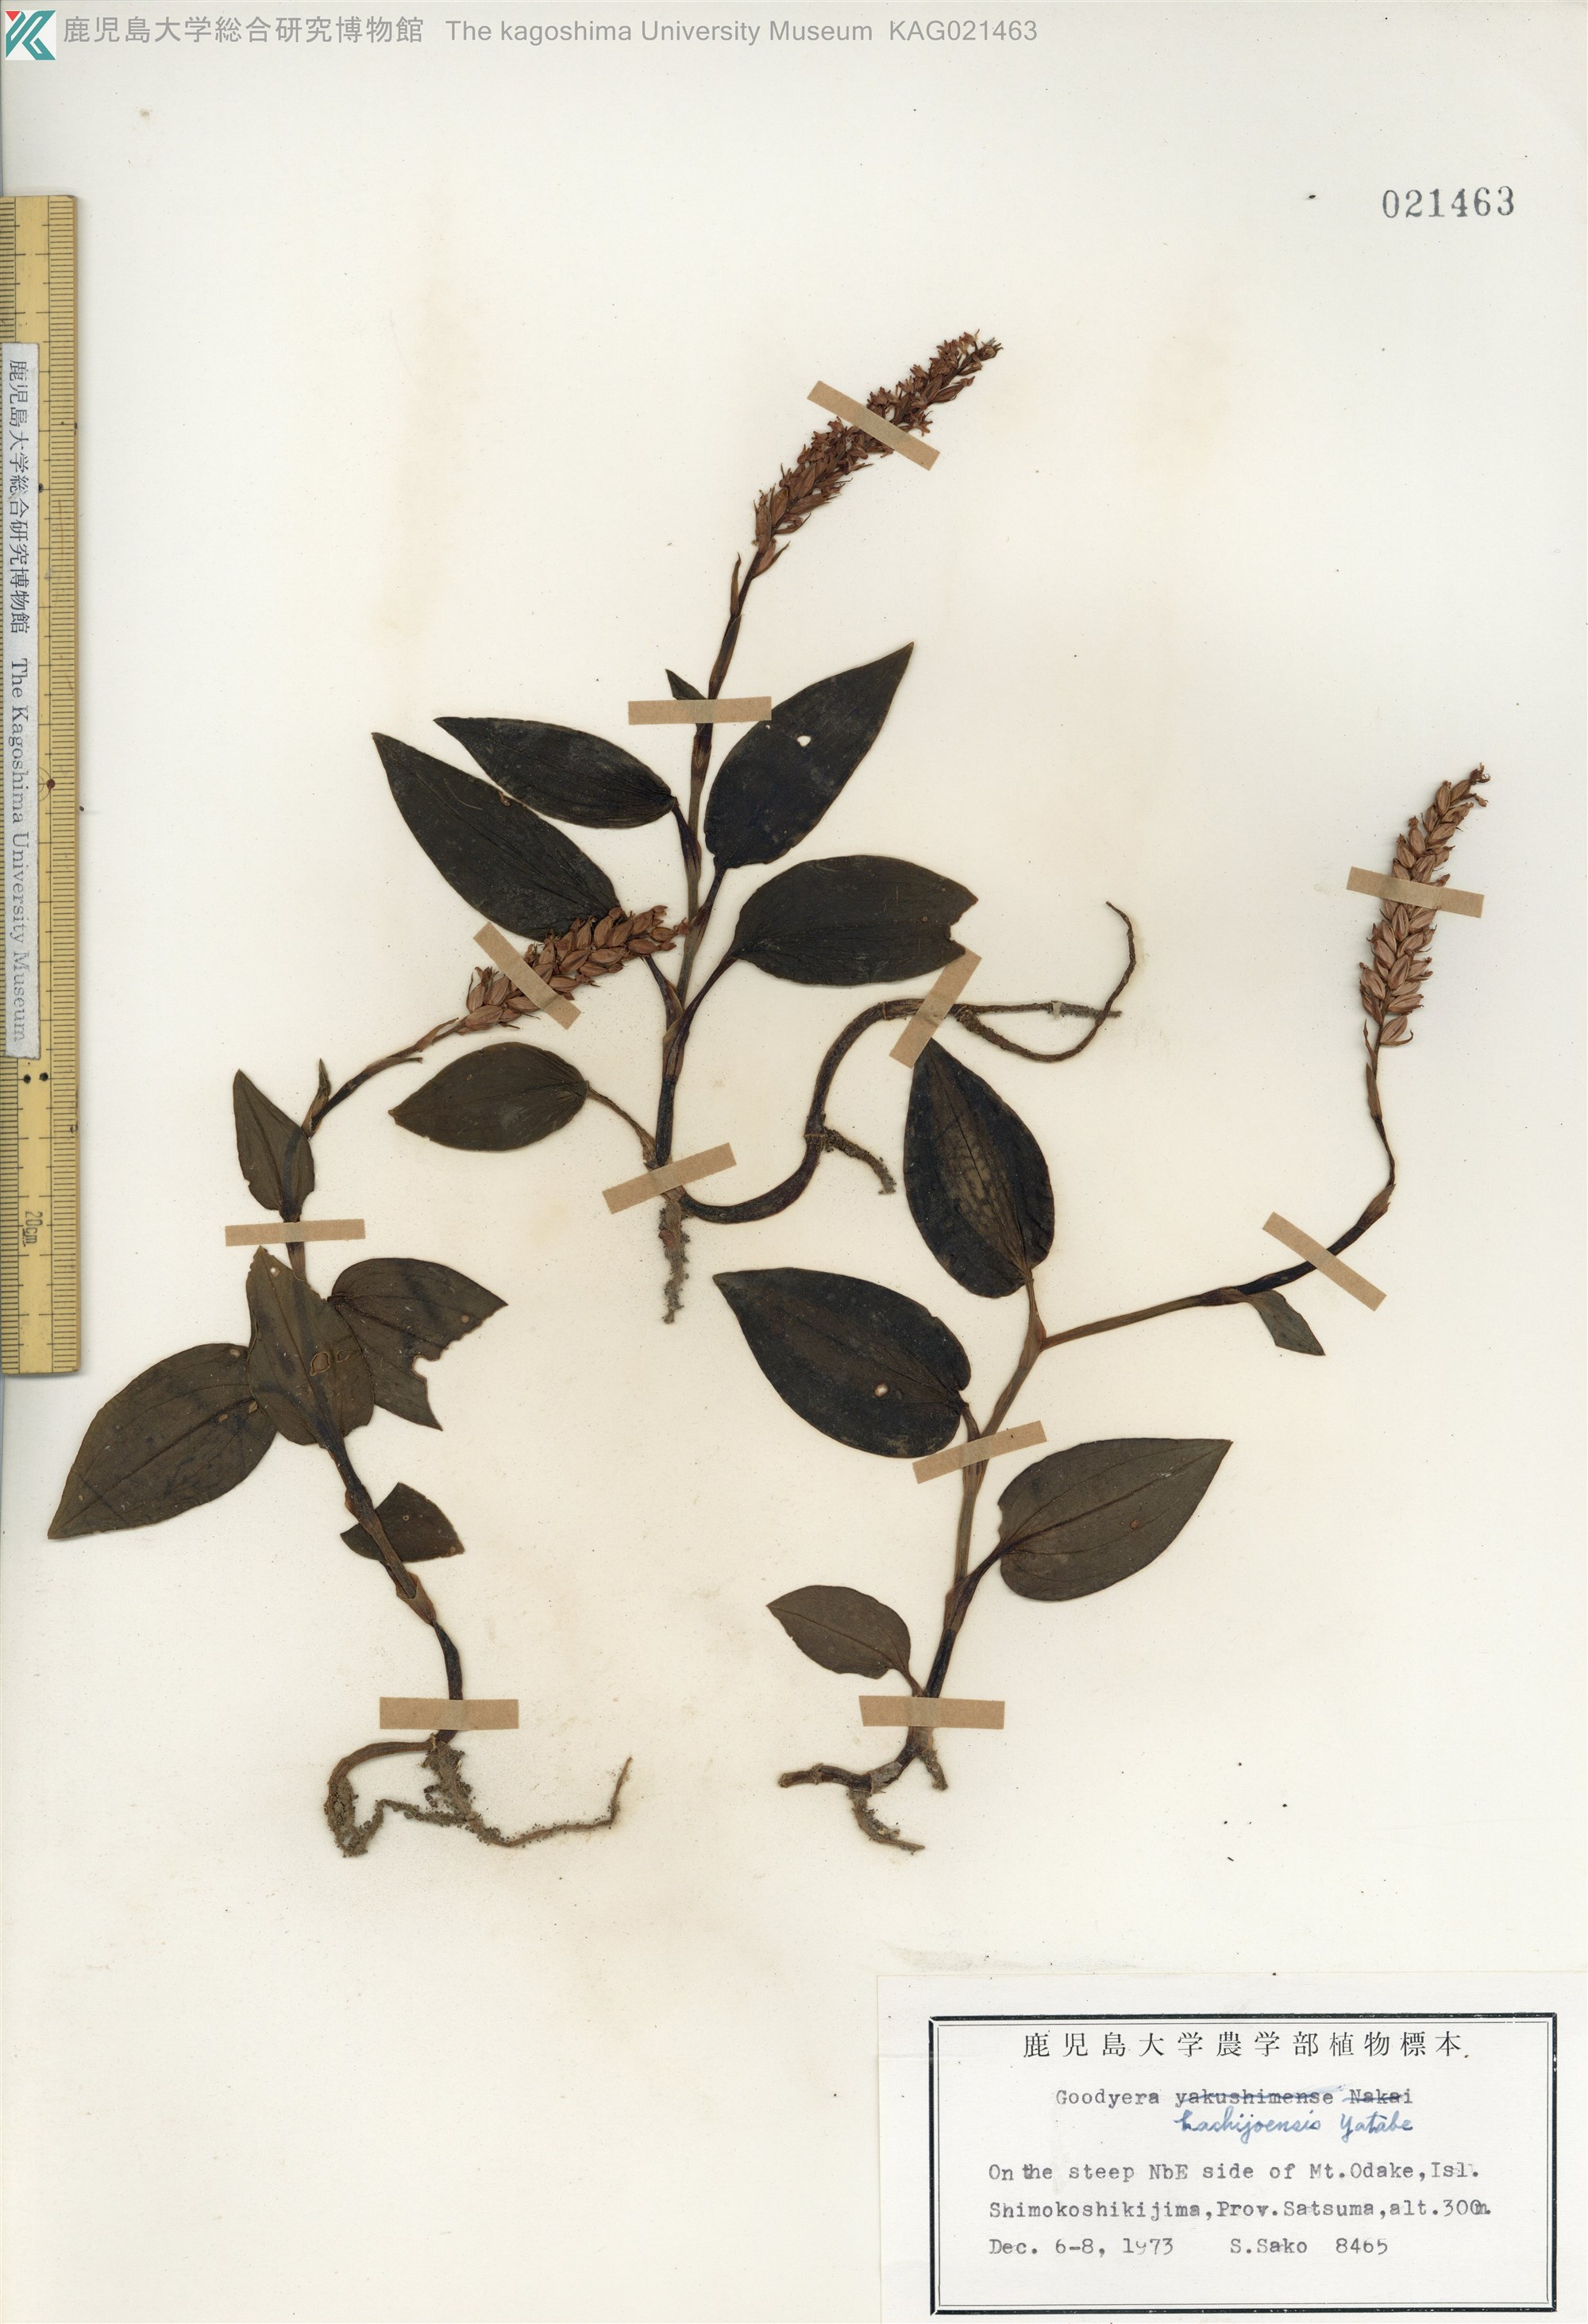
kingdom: Plantae
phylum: Tracheophyta
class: Liliopsida
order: Asparagales
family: Orchidaceae
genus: Goodyera
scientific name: Goodyera hachijoensis
